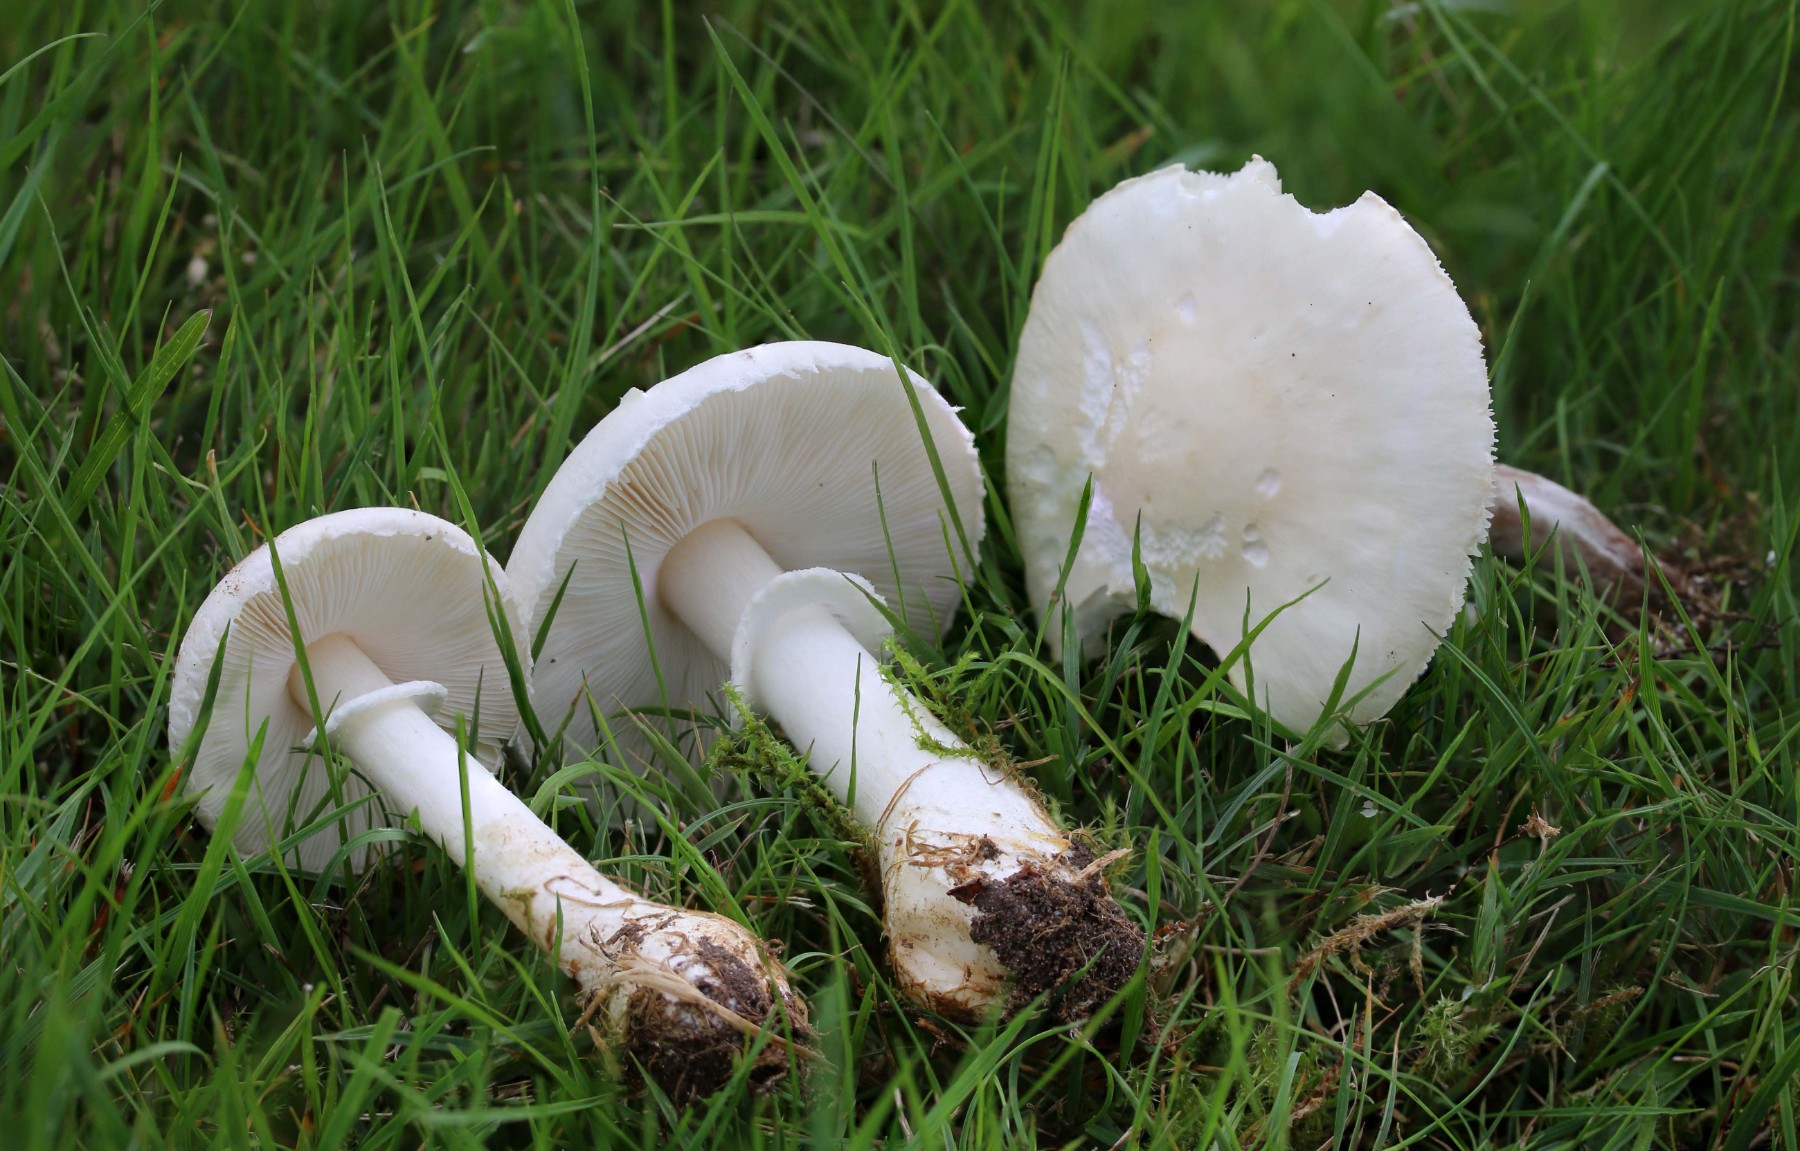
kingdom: Fungi
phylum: Basidiomycota
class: Agaricomycetes
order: Agaricales
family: Agaricaceae
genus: Leucoagaricus
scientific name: Leucoagaricus leucothites
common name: rosabladet silkehat
